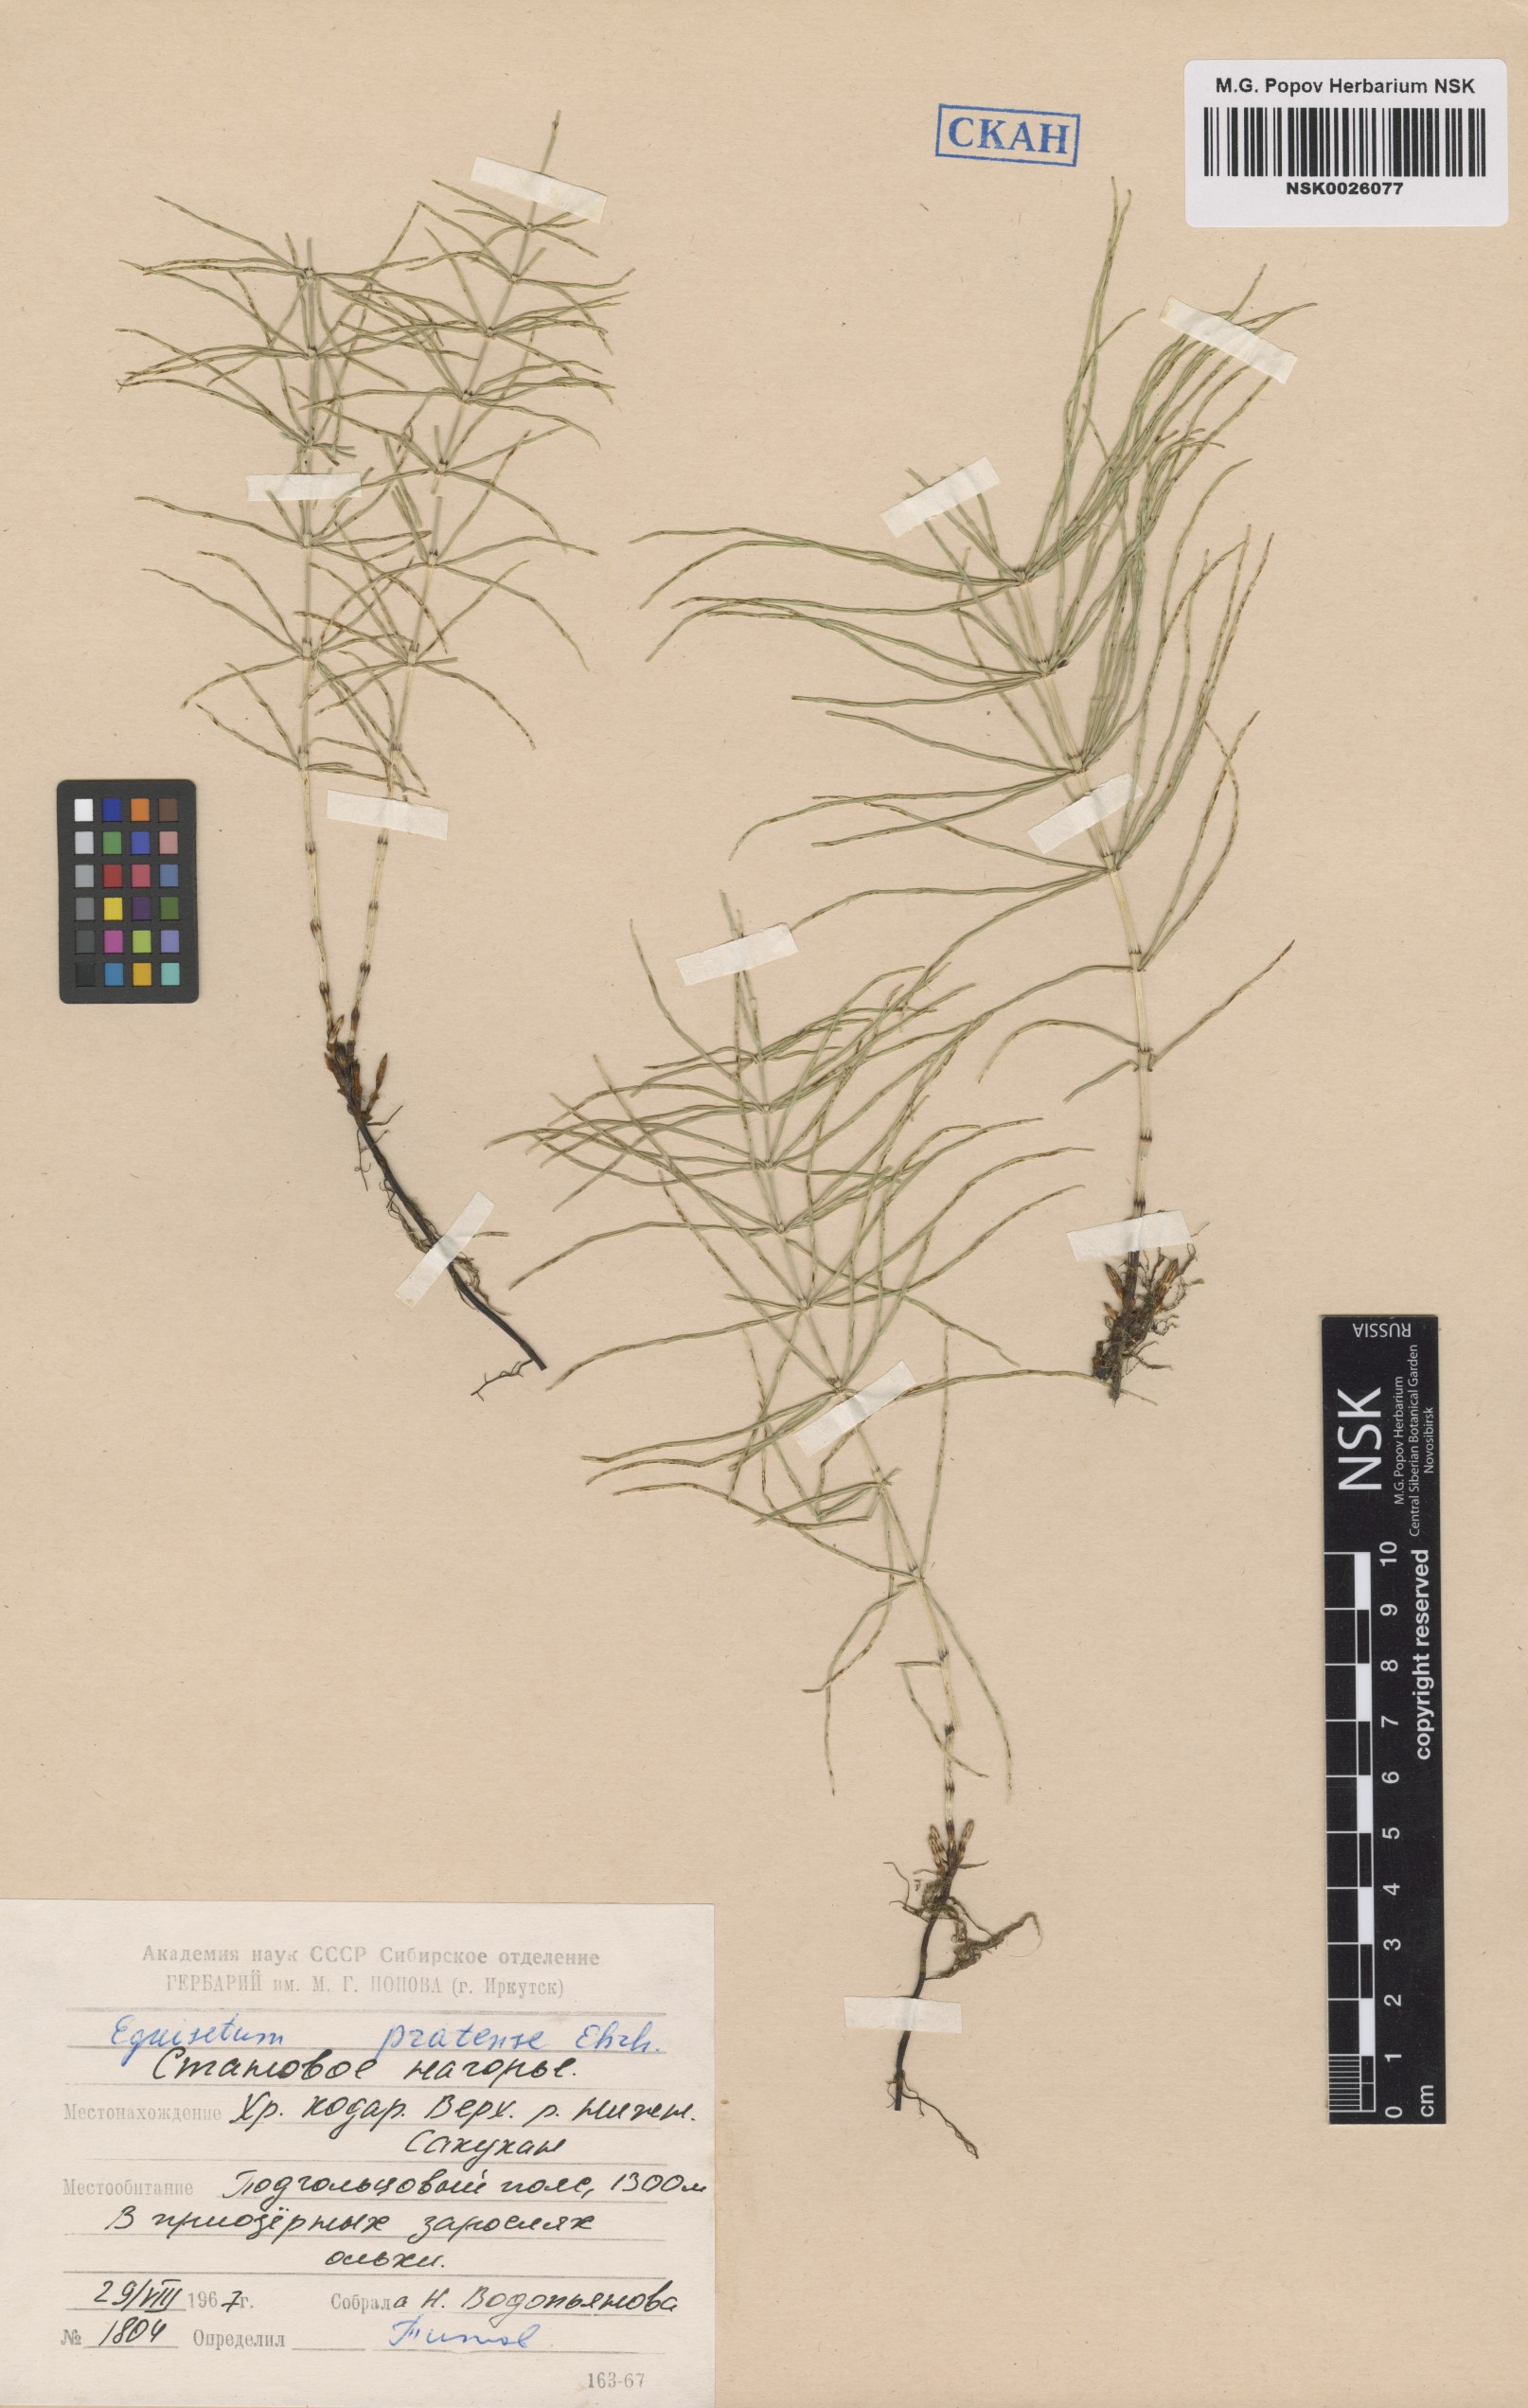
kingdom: Plantae
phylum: Tracheophyta
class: Polypodiopsida
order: Equisetales
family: Equisetaceae
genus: Equisetum
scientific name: Equisetum pratense
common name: Meadow horsetail
